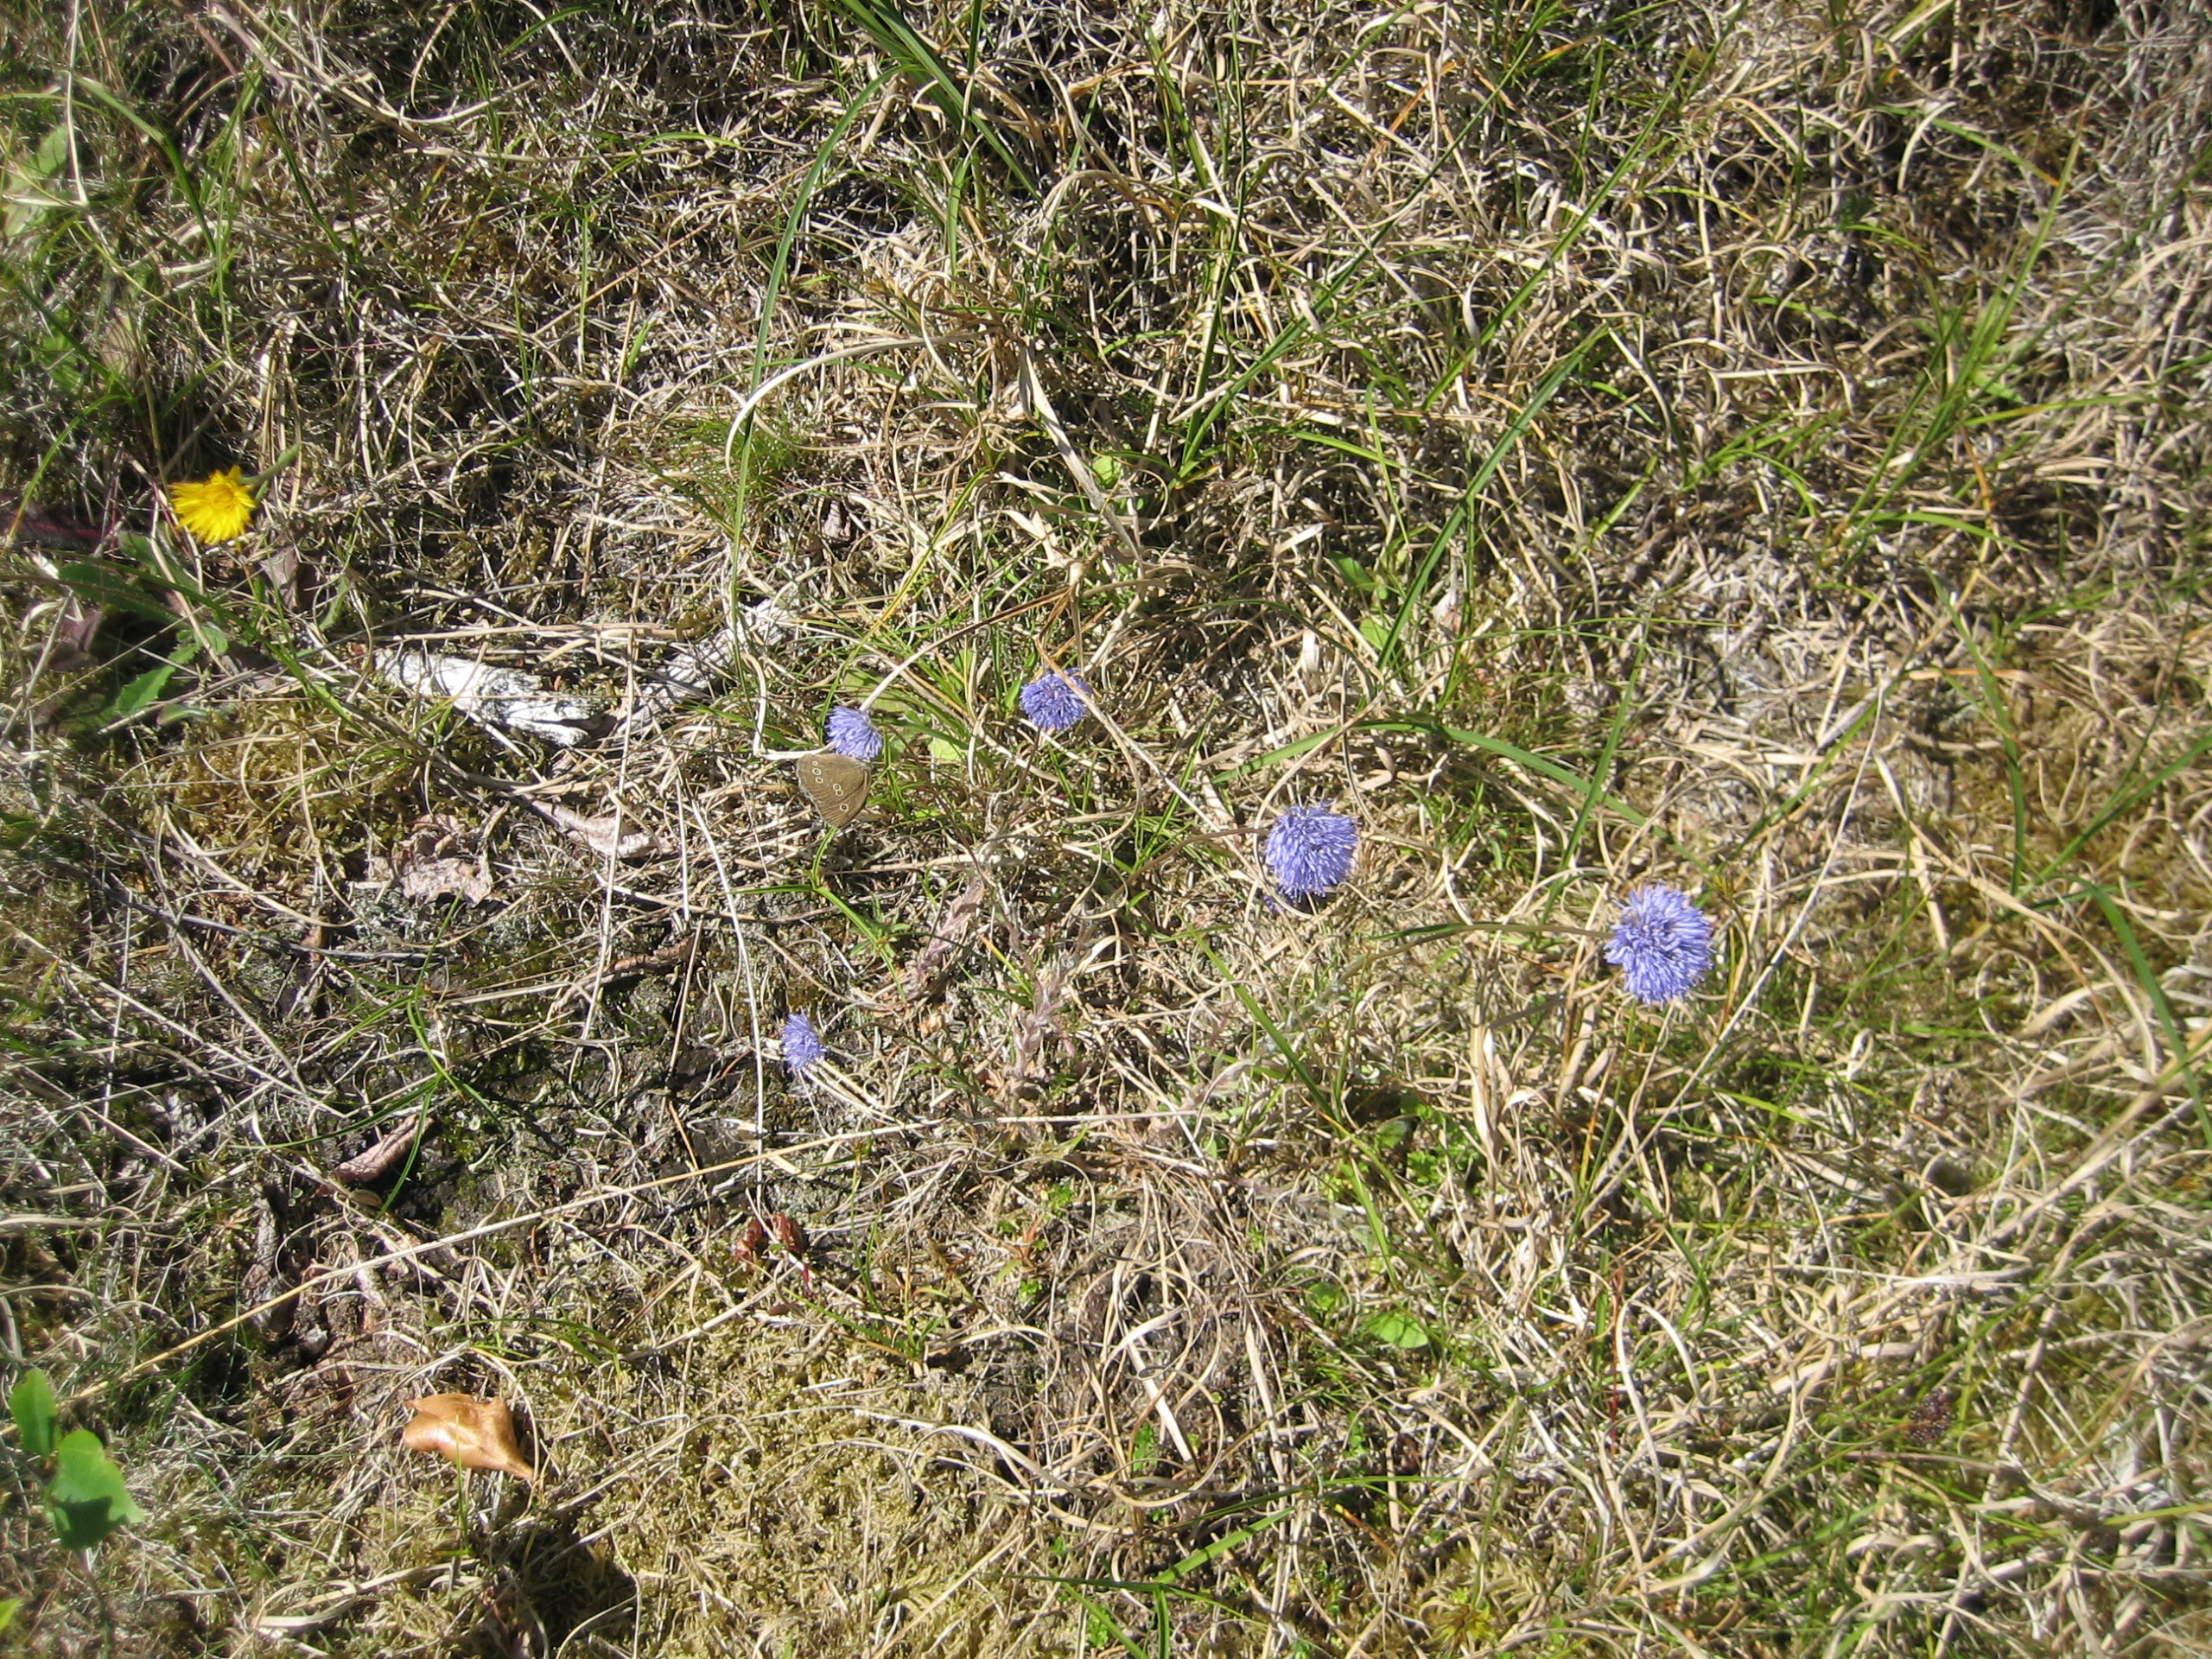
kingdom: Animalia
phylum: Arthropoda
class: Insecta
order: Lepidoptera
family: Nymphalidae
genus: Aphantopus
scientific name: Aphantopus hyperantus
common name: Engrandøje
